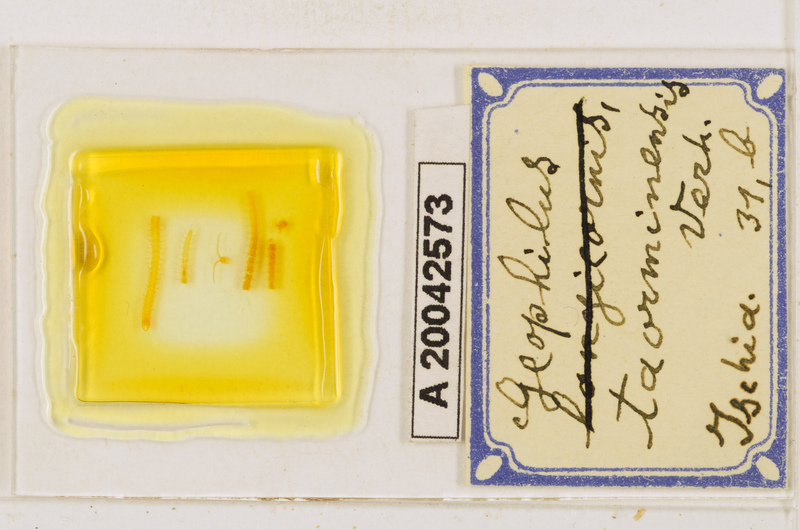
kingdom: Animalia
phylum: Arthropoda
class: Chilopoda
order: Geophilomorpha
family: Geophilidae
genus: Geophilus
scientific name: Geophilus osquidatum
